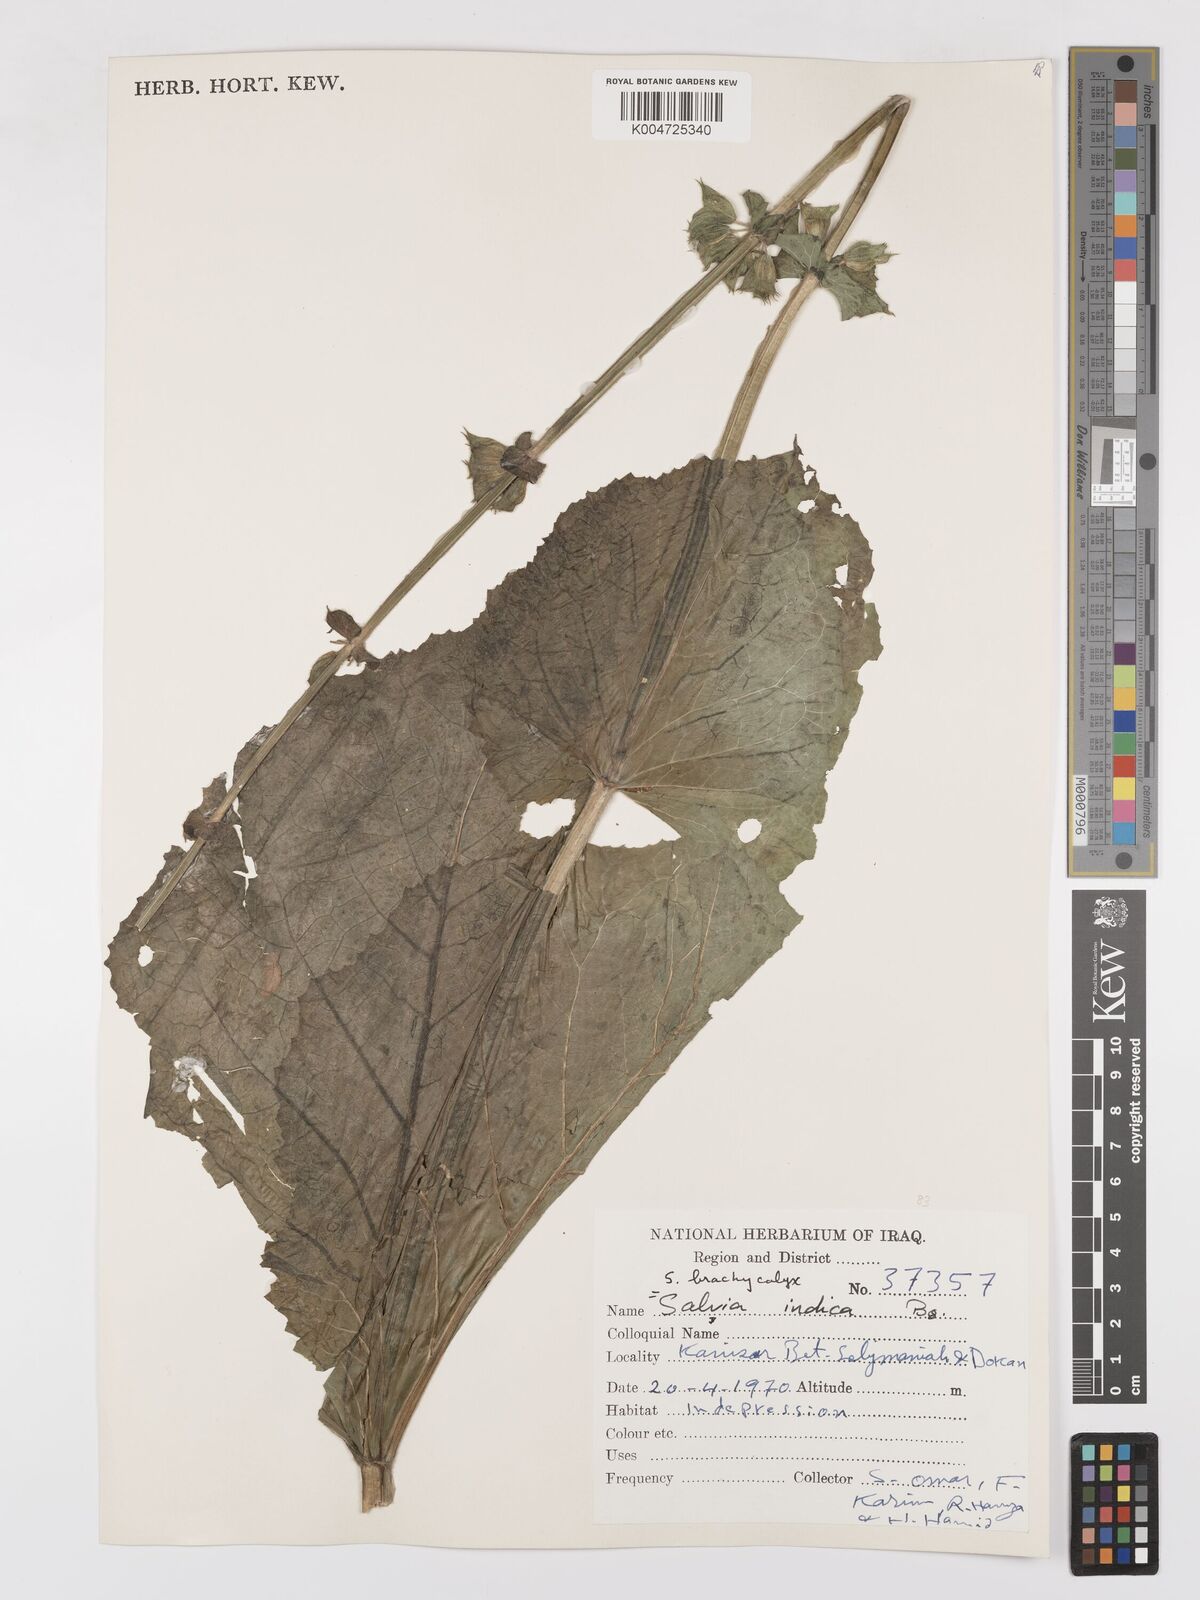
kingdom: Plantae
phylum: Tracheophyta
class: Magnoliopsida
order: Lamiales
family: Lamiaceae
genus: Salvia
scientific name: Salvia indica
